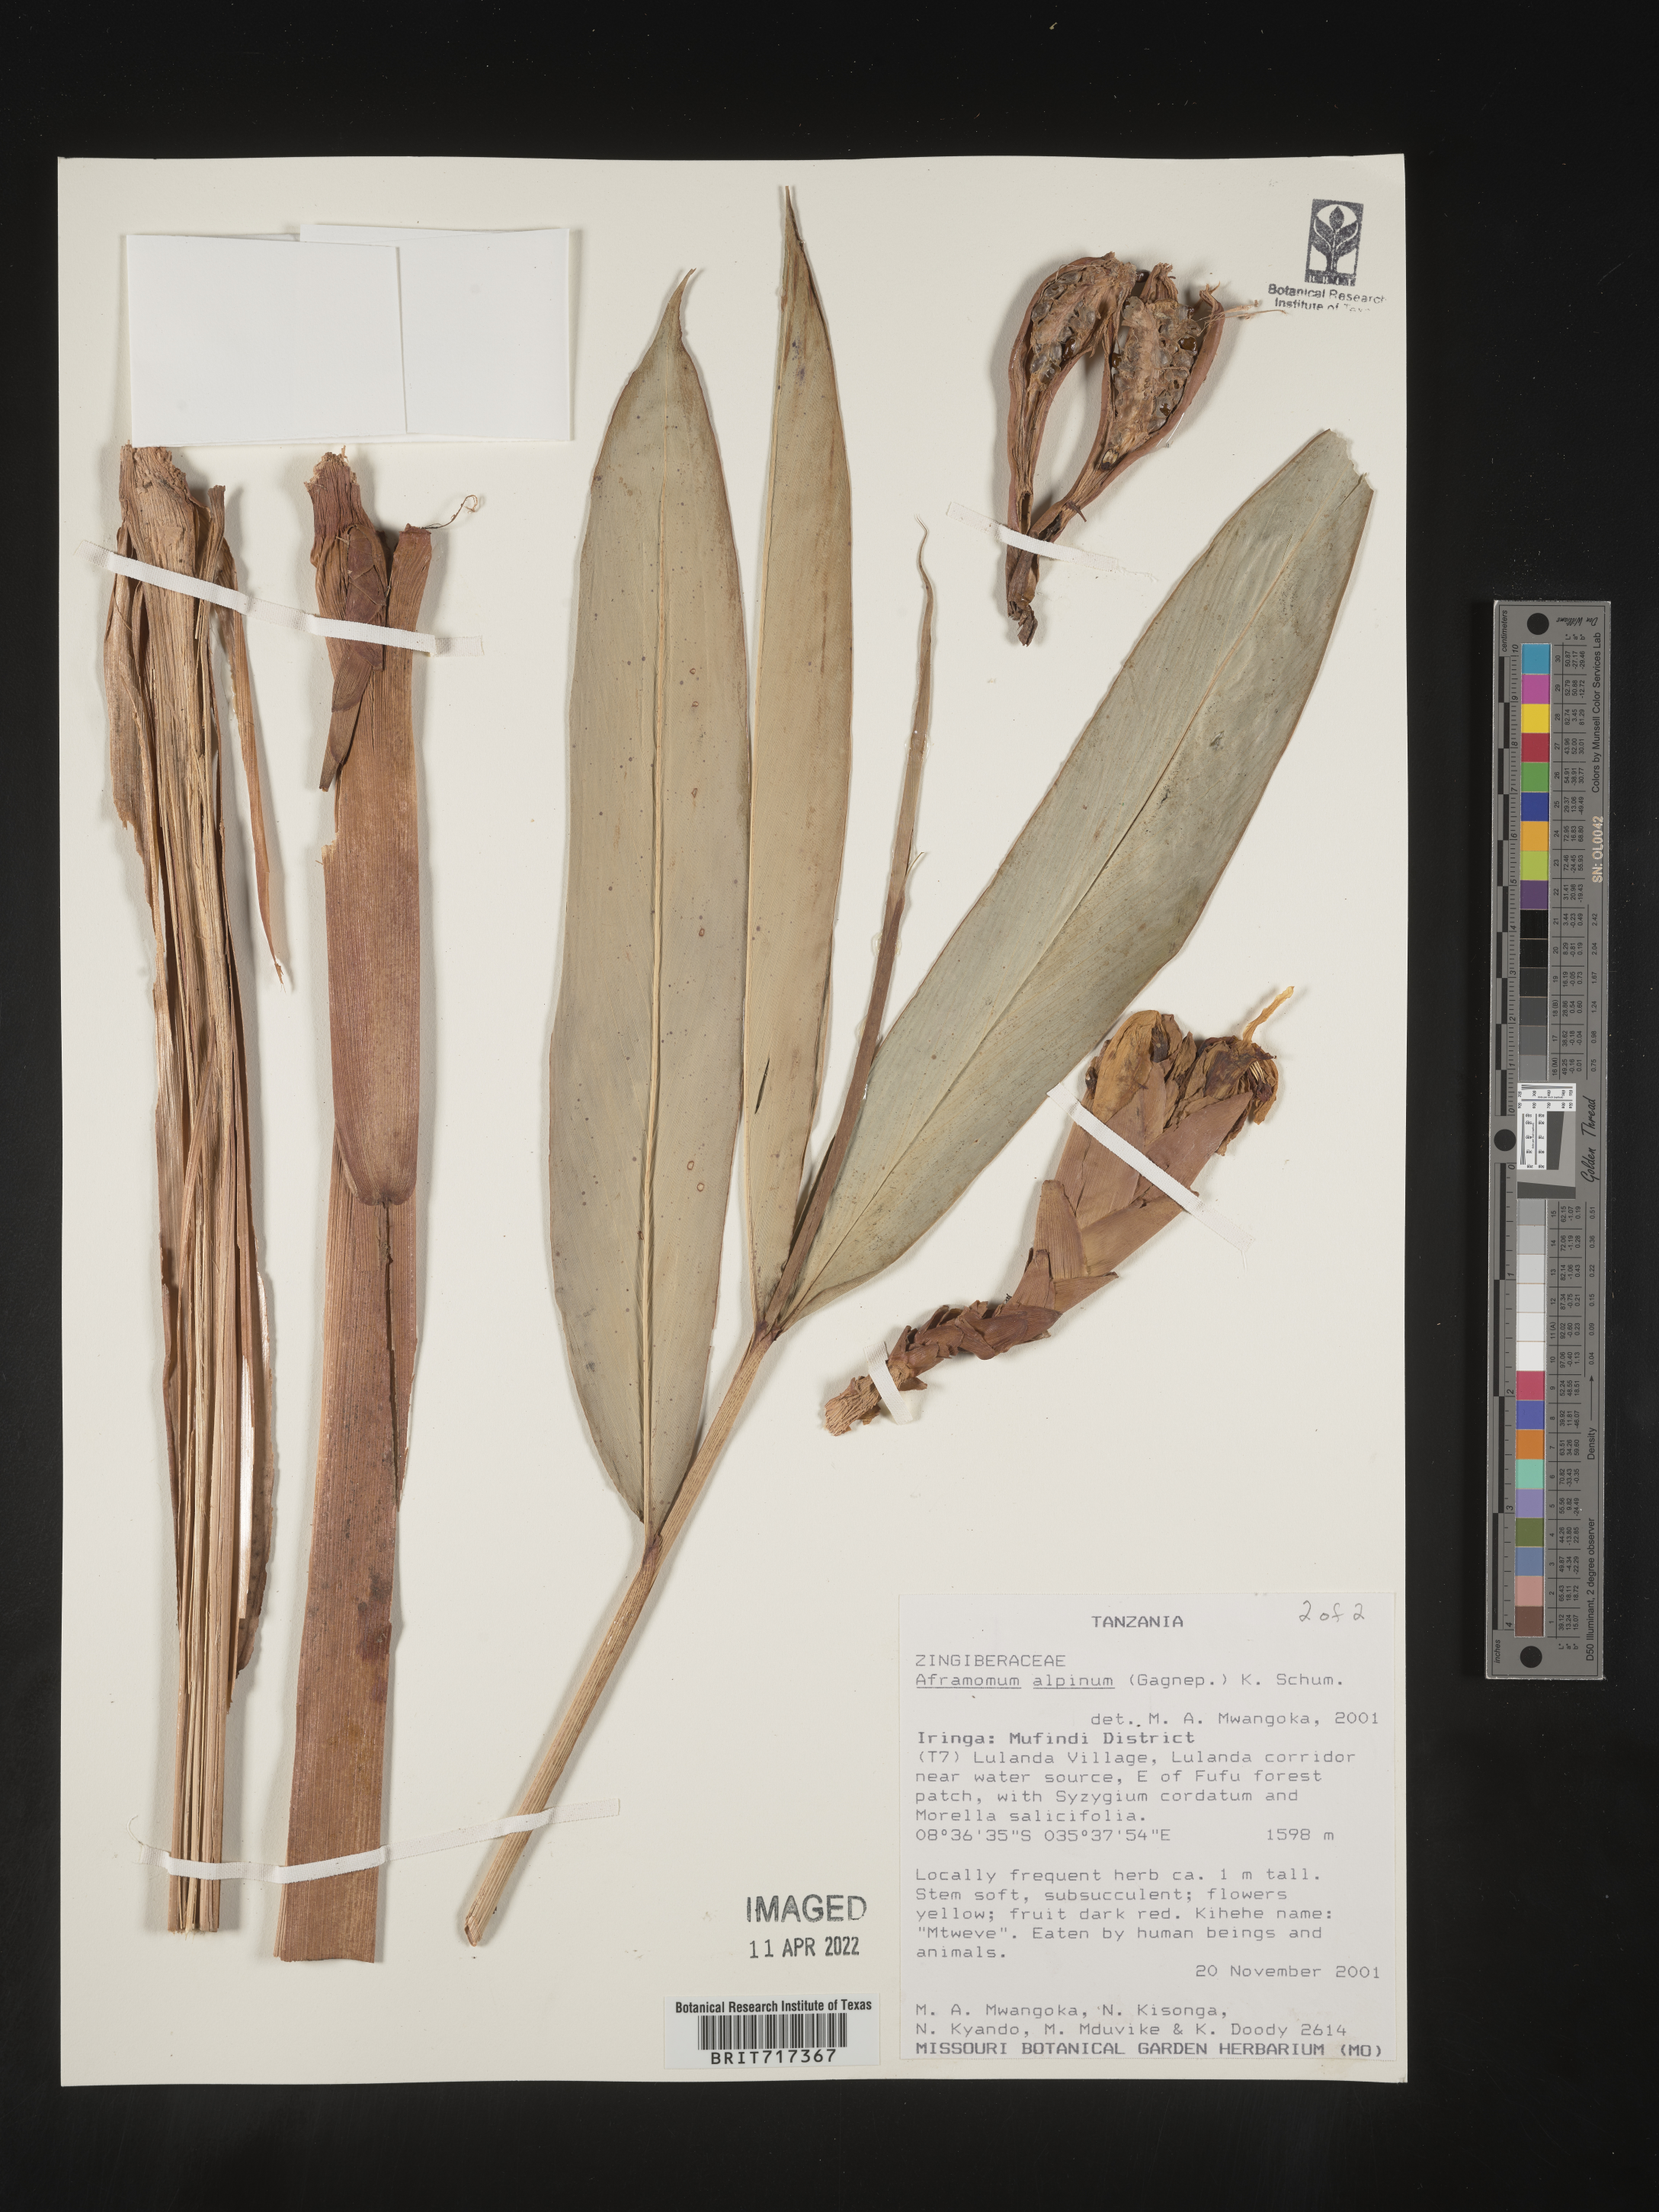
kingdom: Plantae
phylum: Tracheophyta
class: Liliopsida
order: Zingiberales
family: Zingiberaceae
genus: Aframomum
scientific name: Aframomum
